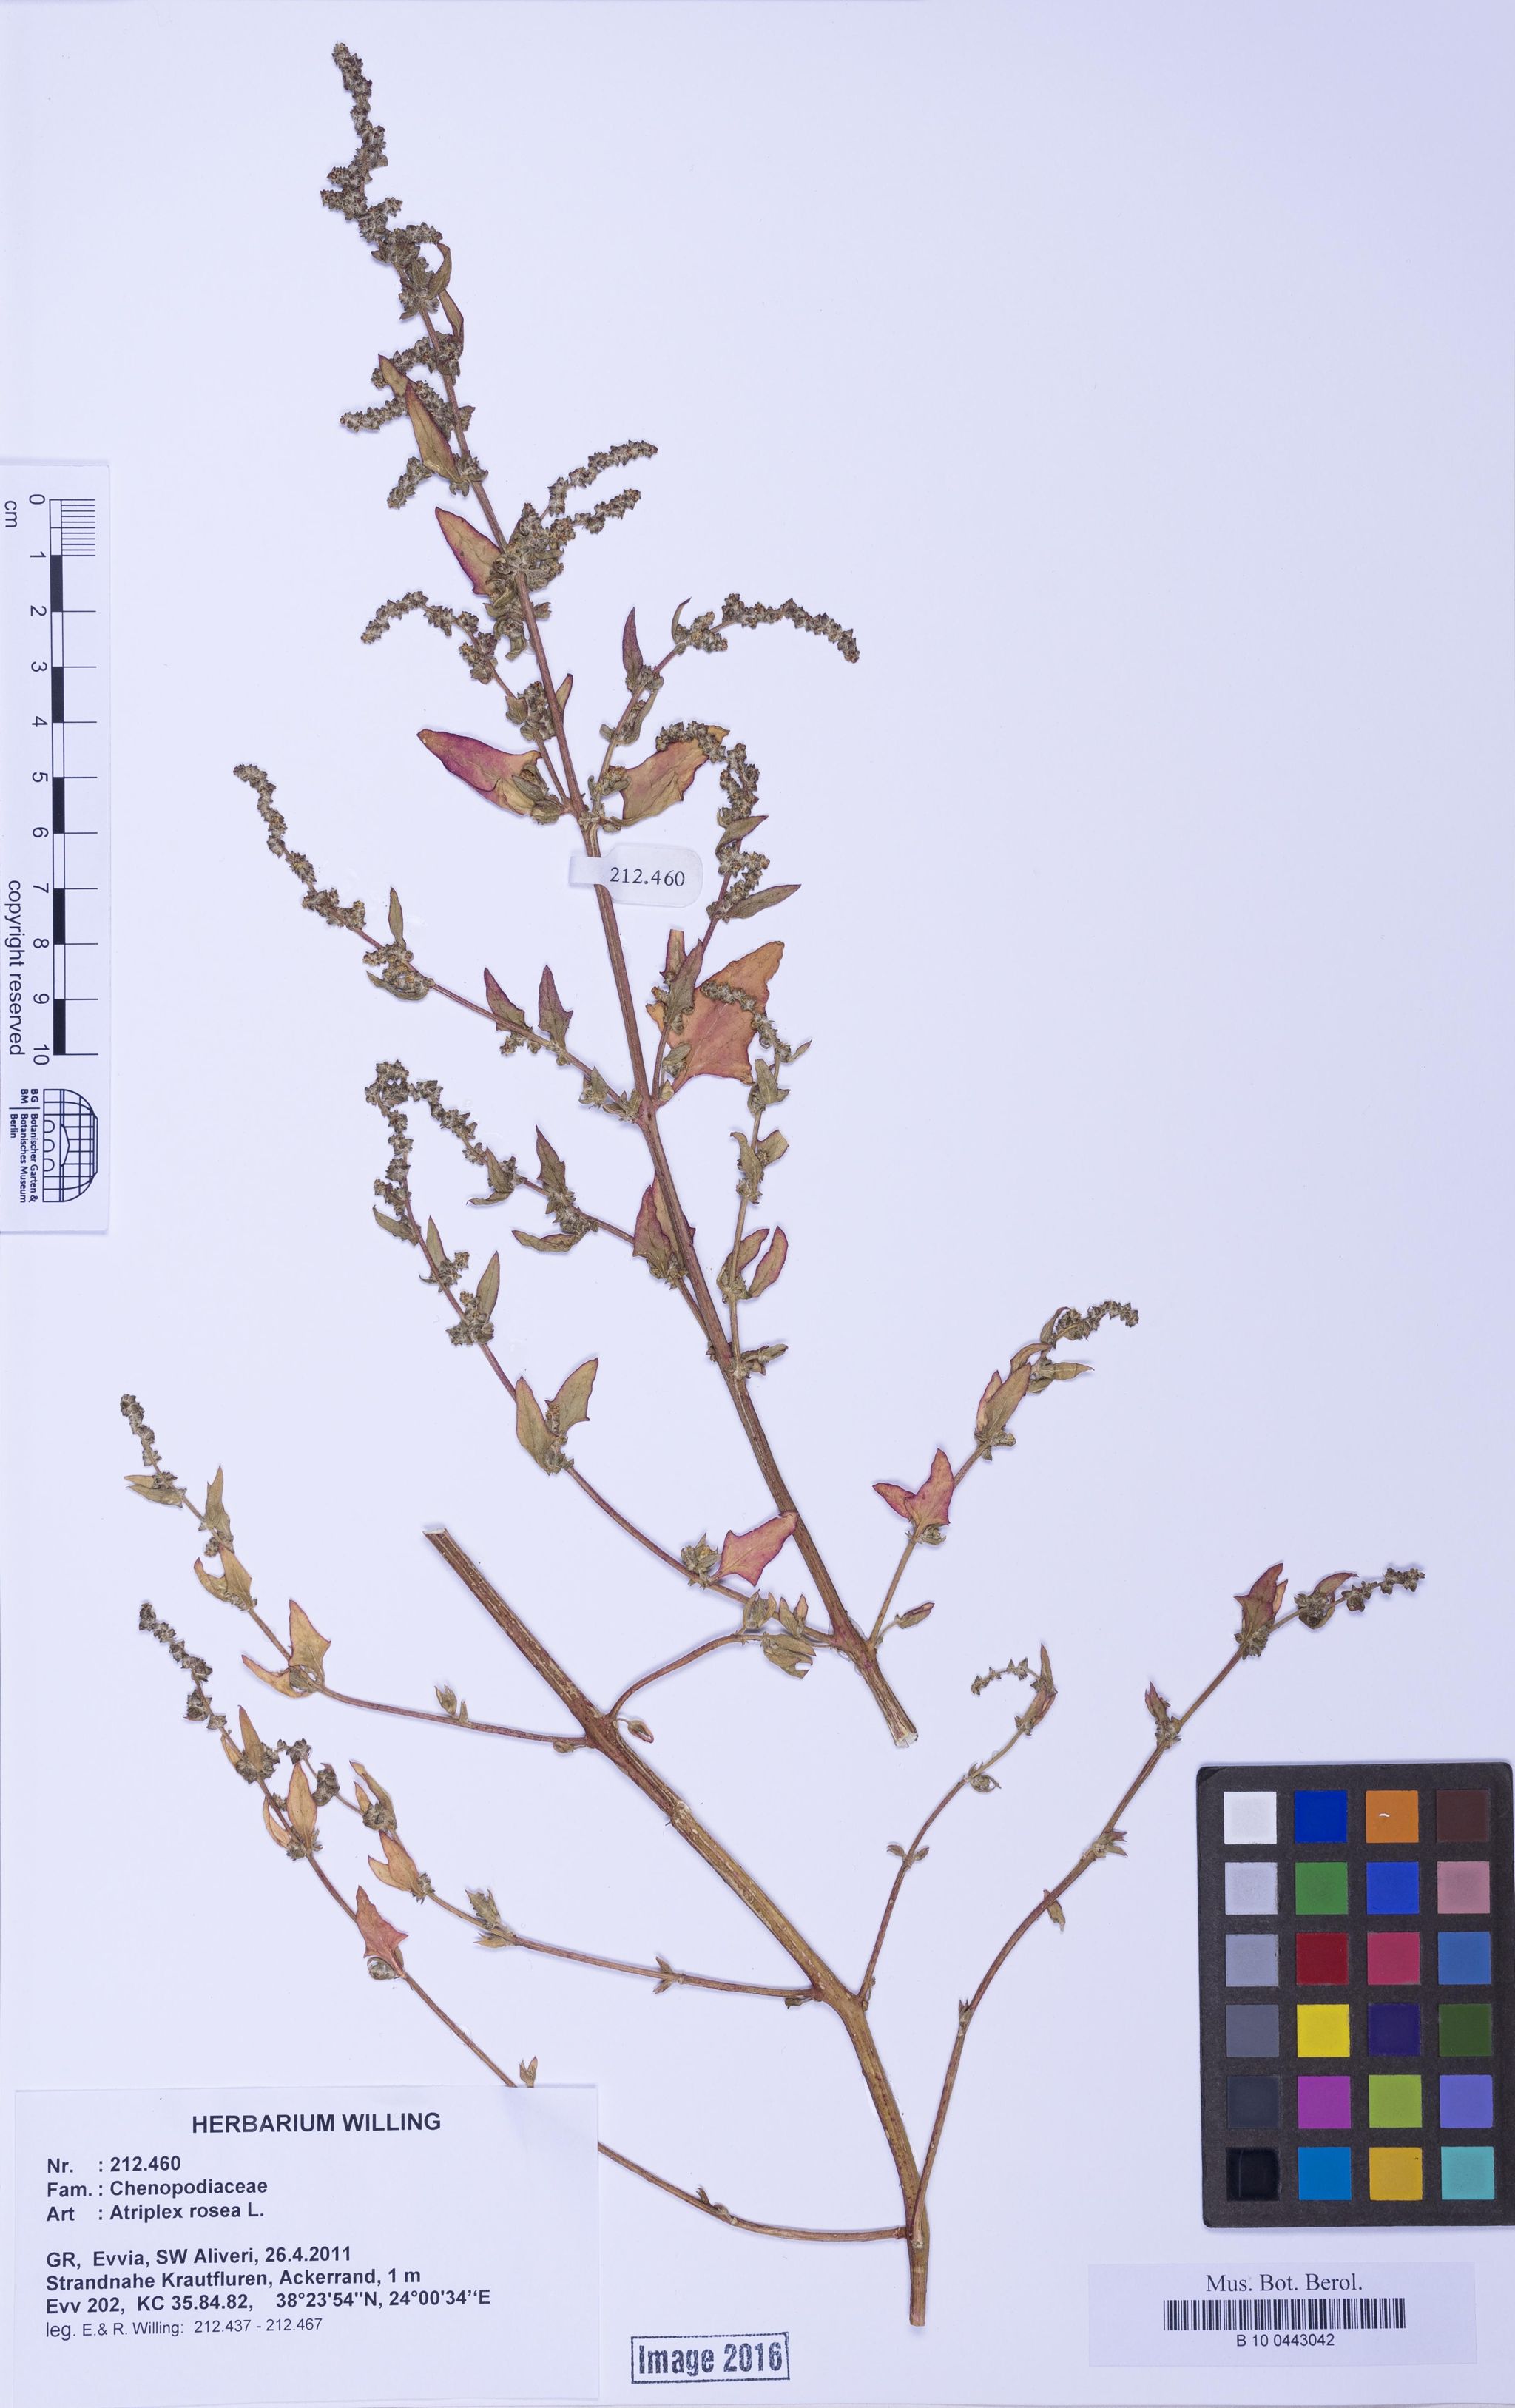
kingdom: Plantae
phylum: Tracheophyta
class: Magnoliopsida
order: Caryophyllales
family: Amaranthaceae
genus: Atriplex
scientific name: Atriplex rosea
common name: Tumbling saltweed
